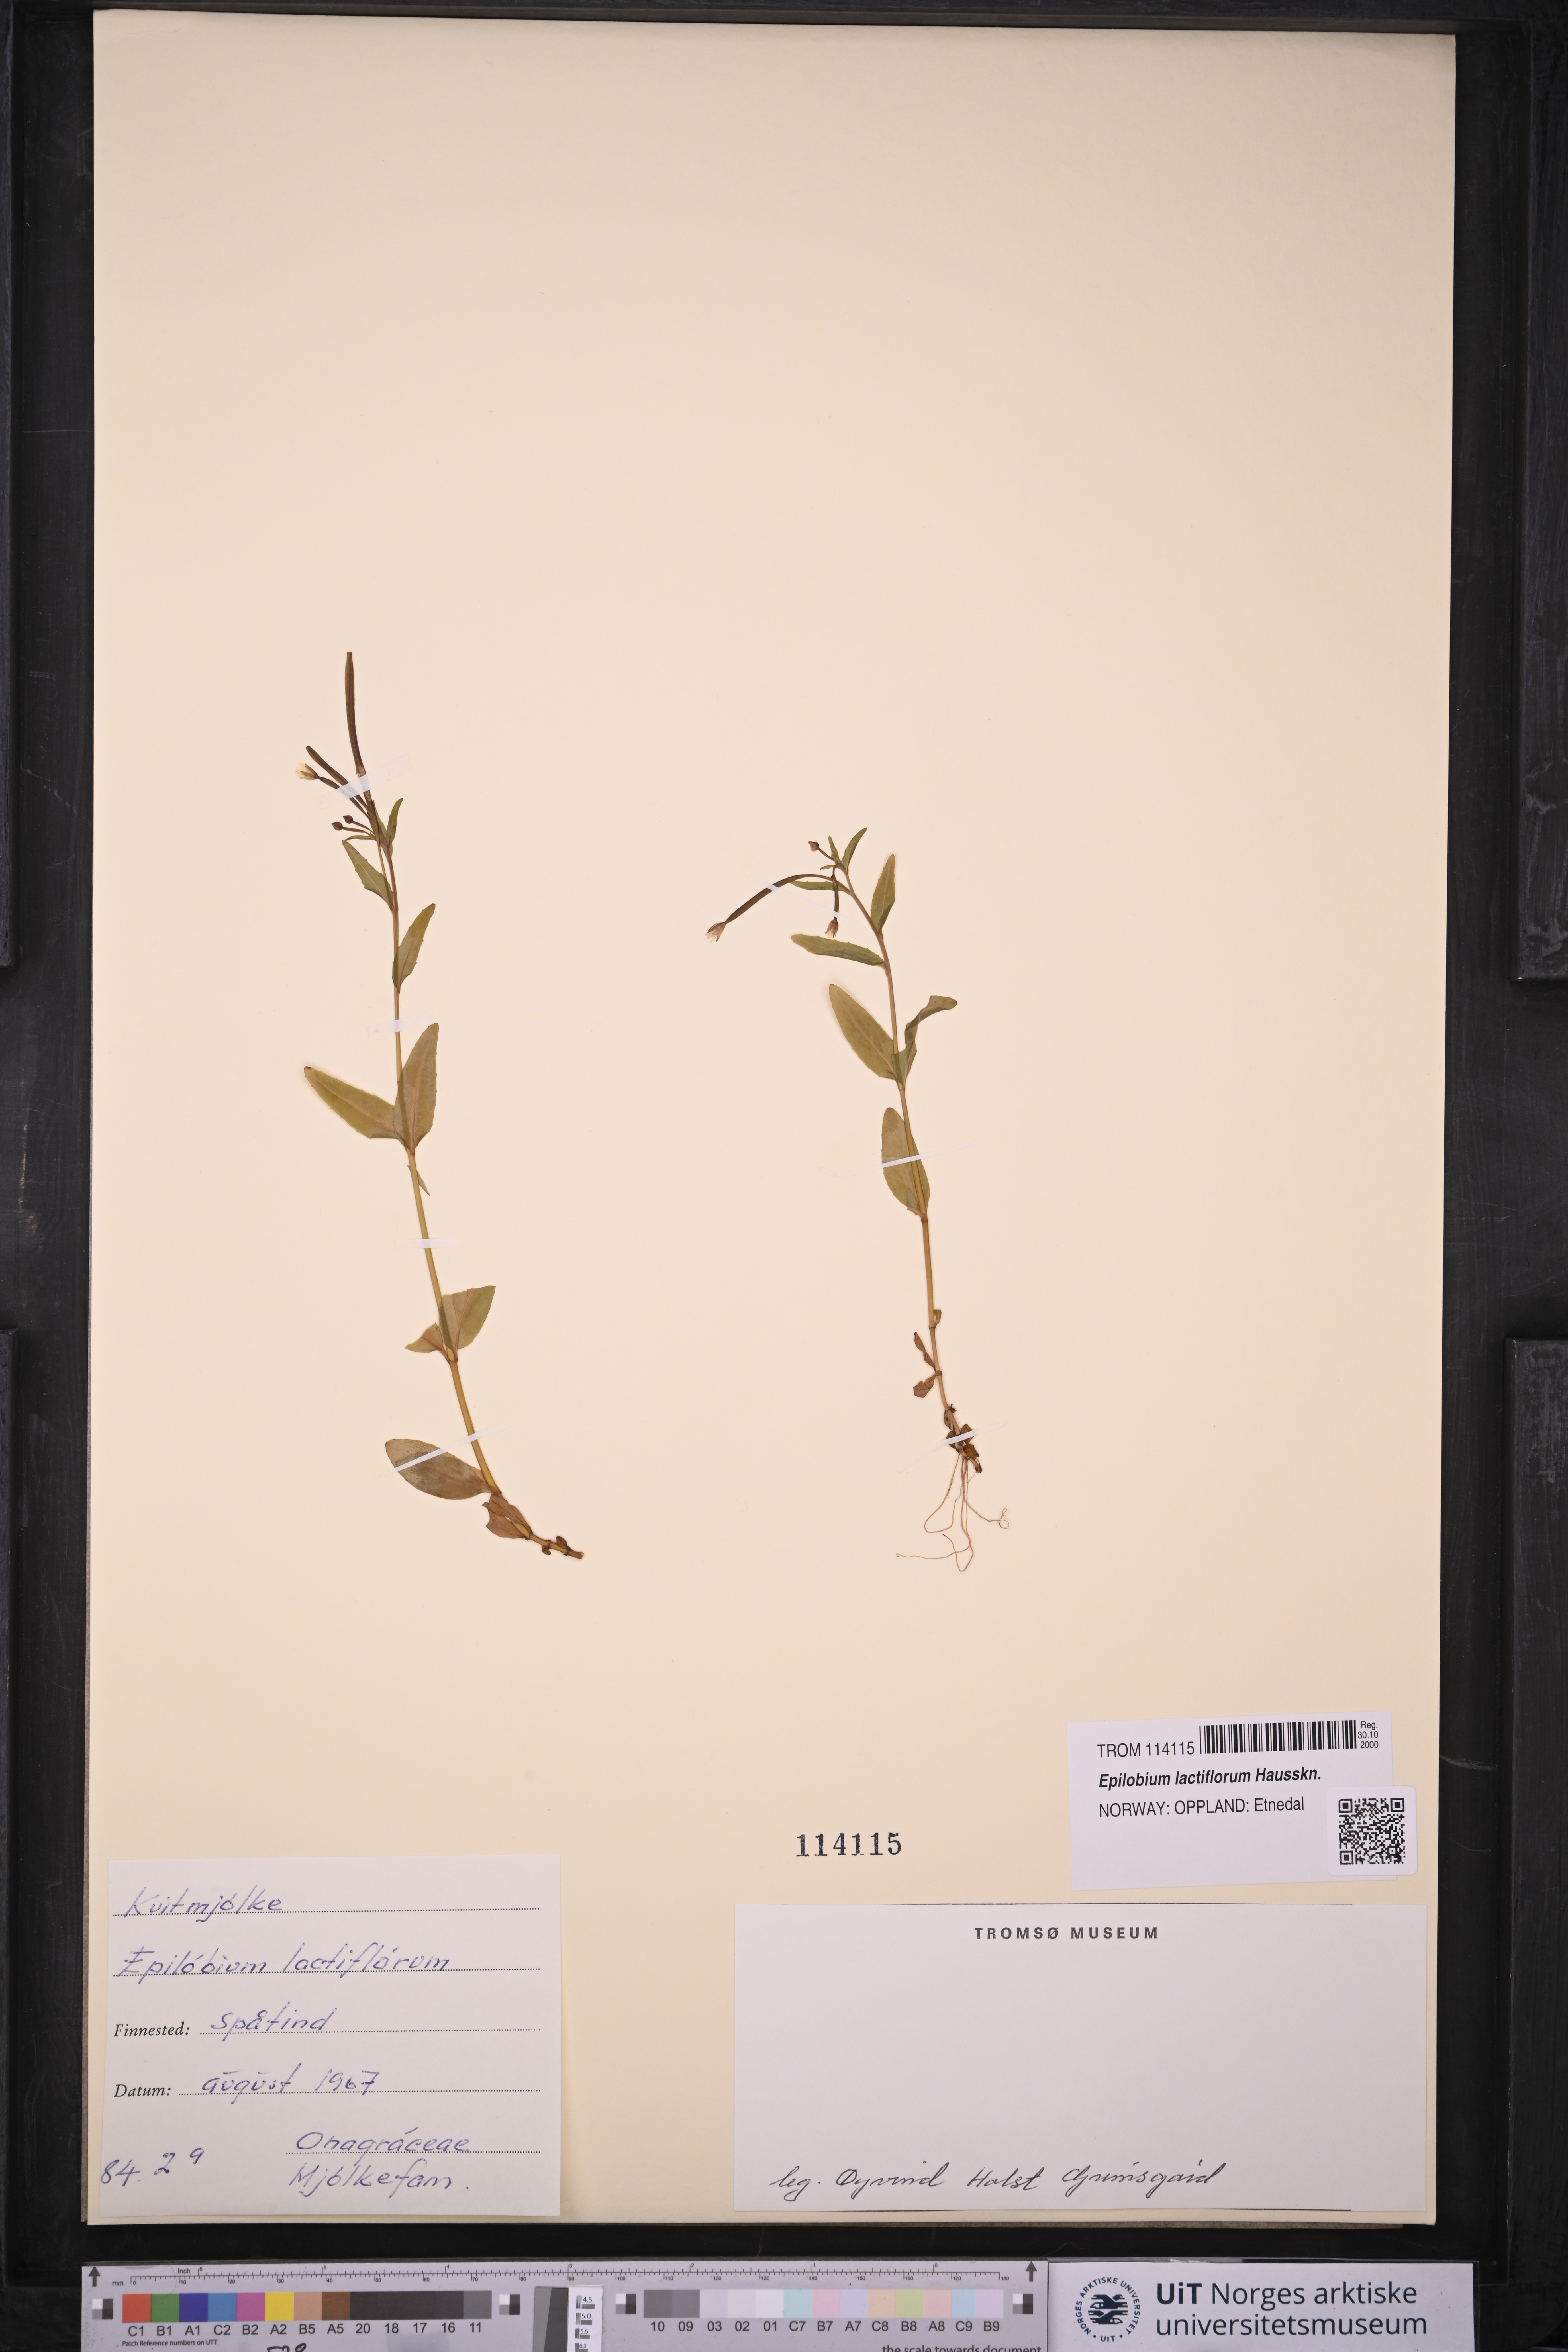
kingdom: Plantae
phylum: Tracheophyta
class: Magnoliopsida
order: Myrtales
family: Onagraceae
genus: Epilobium
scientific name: Epilobium lactiflorum
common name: Milkflower willowherb
